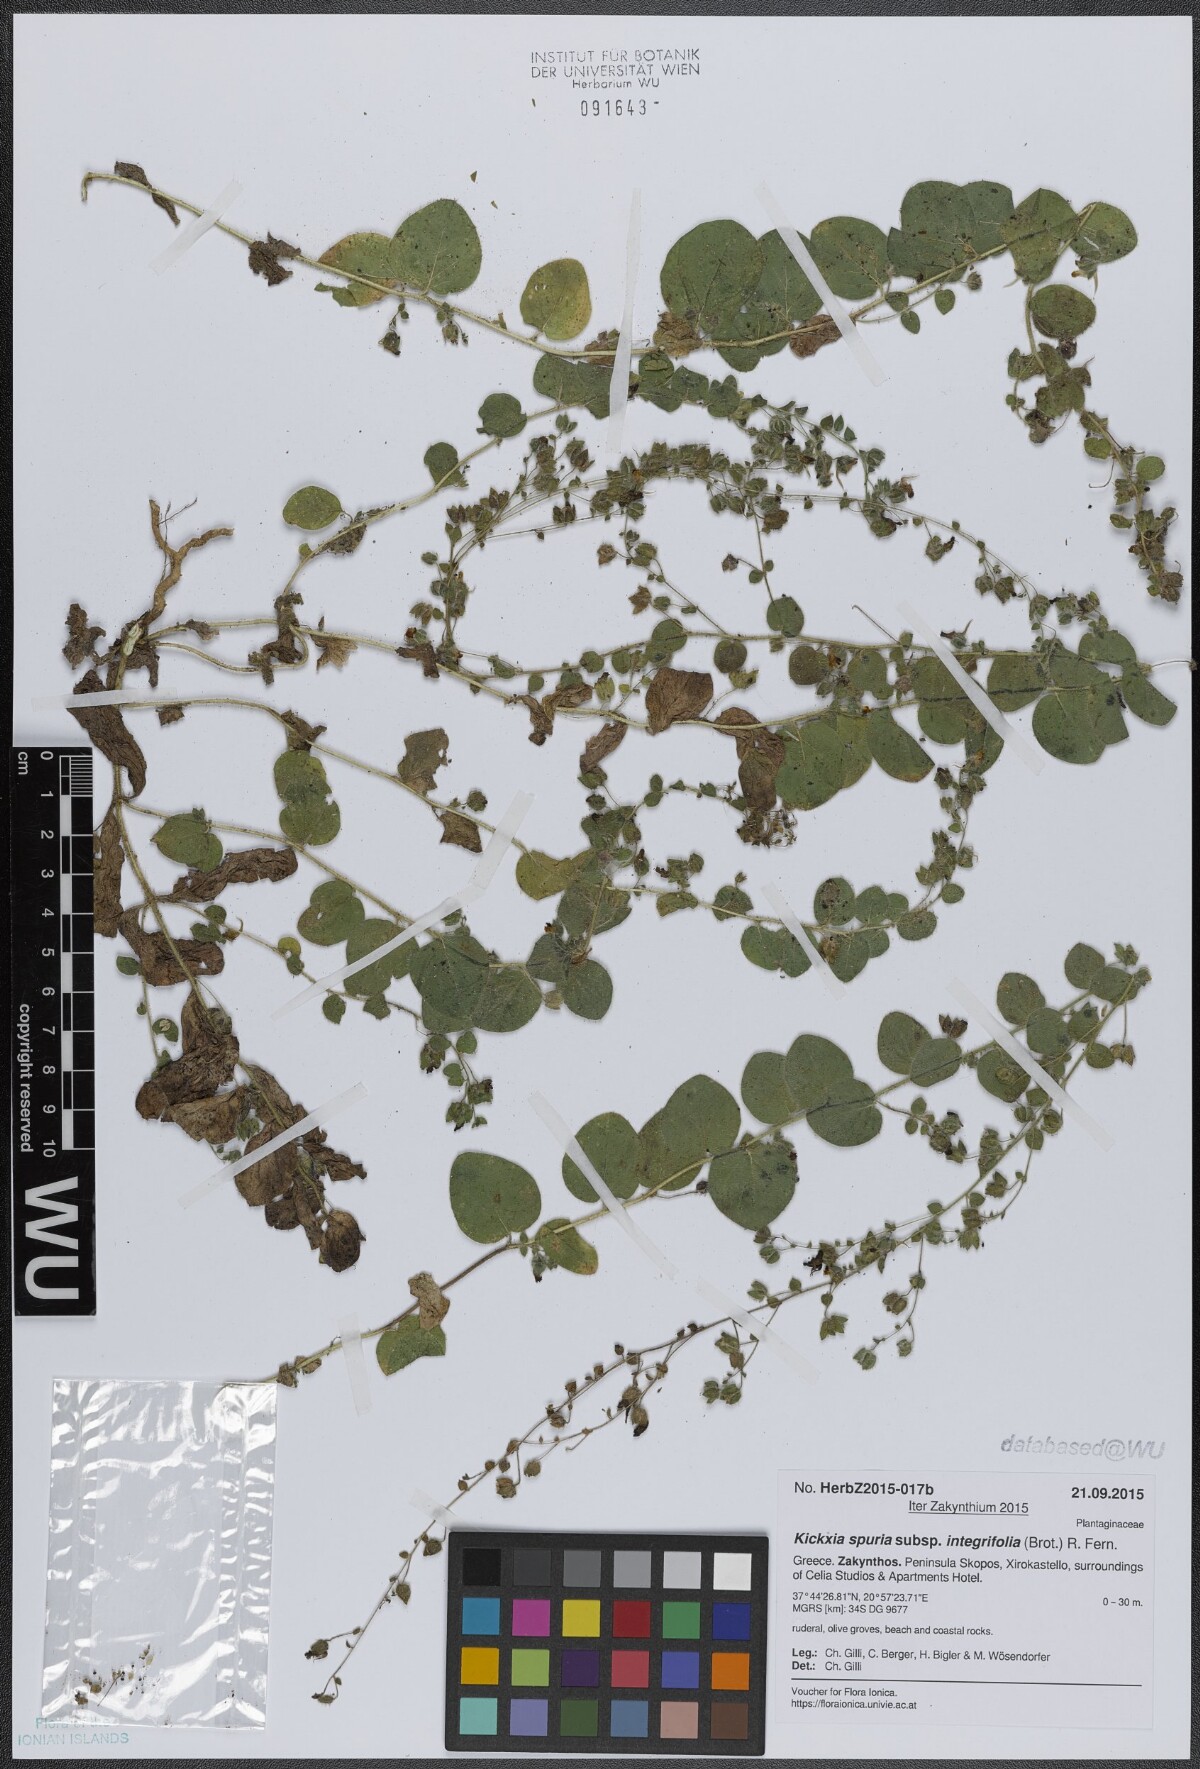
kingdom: Plantae
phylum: Tracheophyta
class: Magnoliopsida
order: Lamiales
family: Plantaginaceae
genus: Kickxia
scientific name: Kickxia spuria
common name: Round-leaved fluellen
